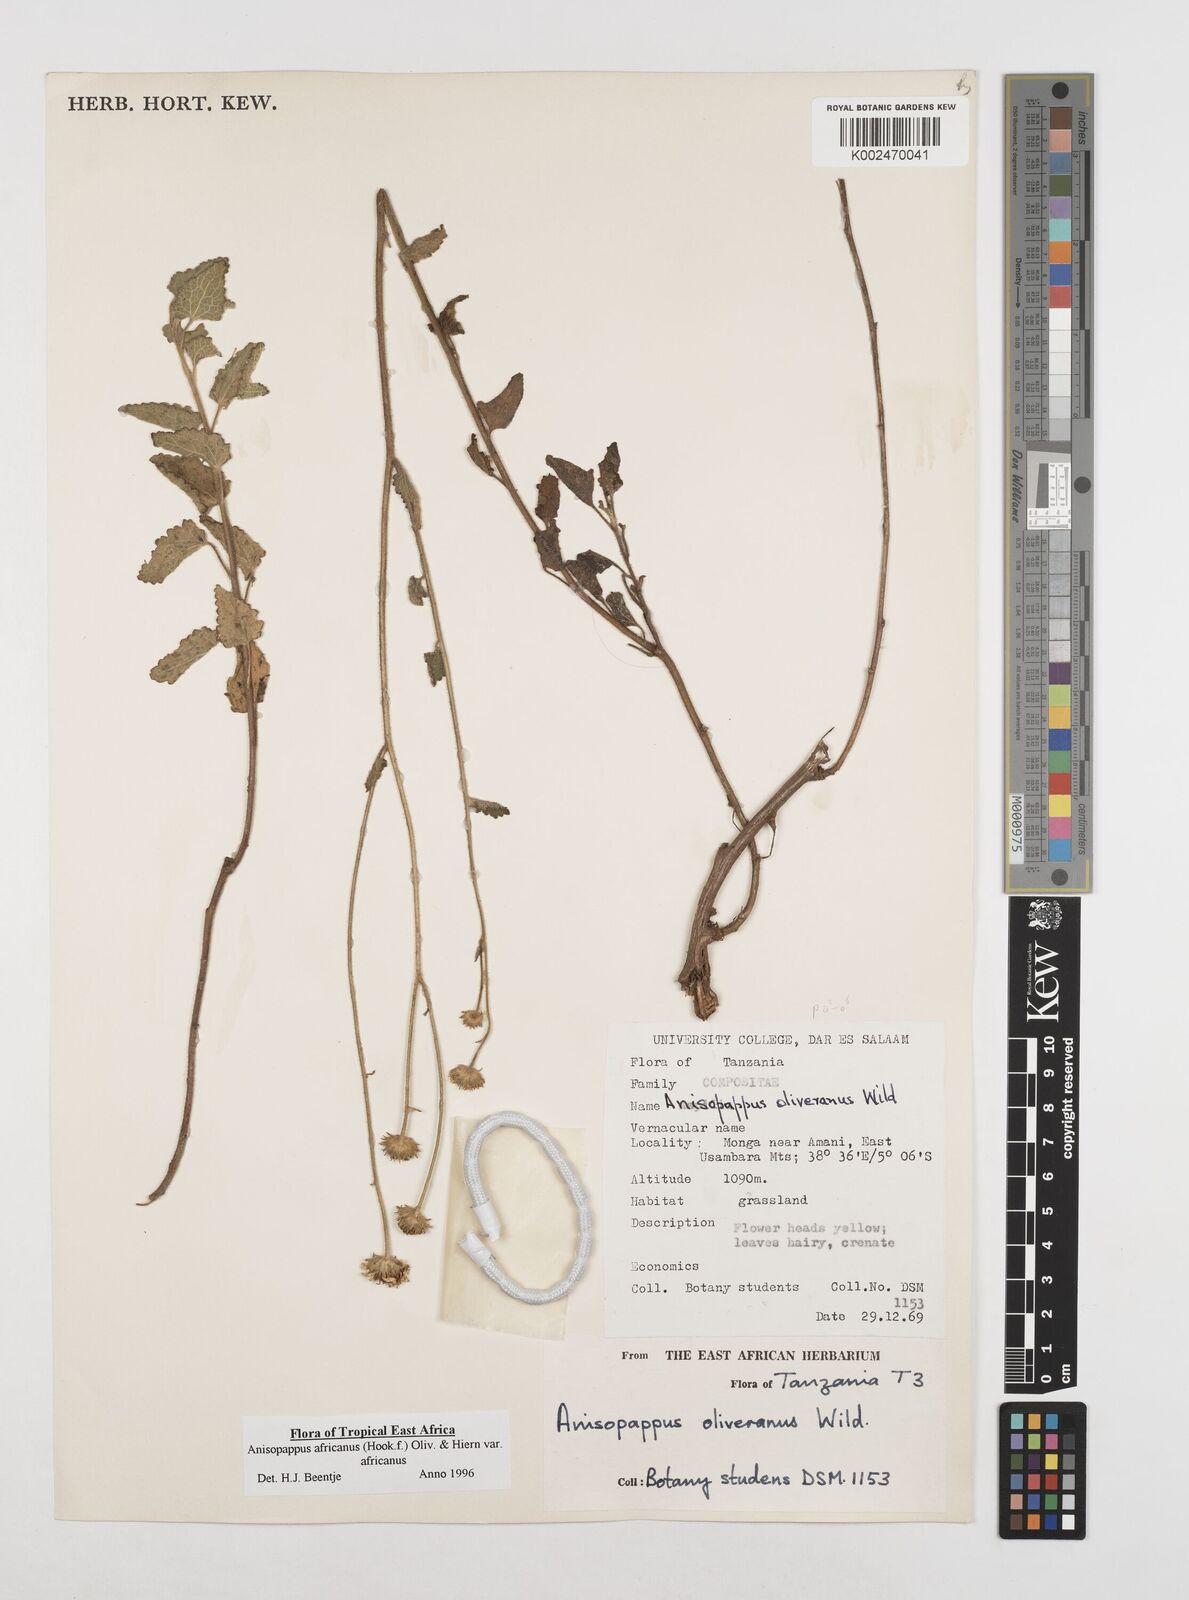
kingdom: Plantae
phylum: Tracheophyta
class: Magnoliopsida
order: Asterales
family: Asteraceae
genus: Anisopappus
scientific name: Anisopappus africanus
